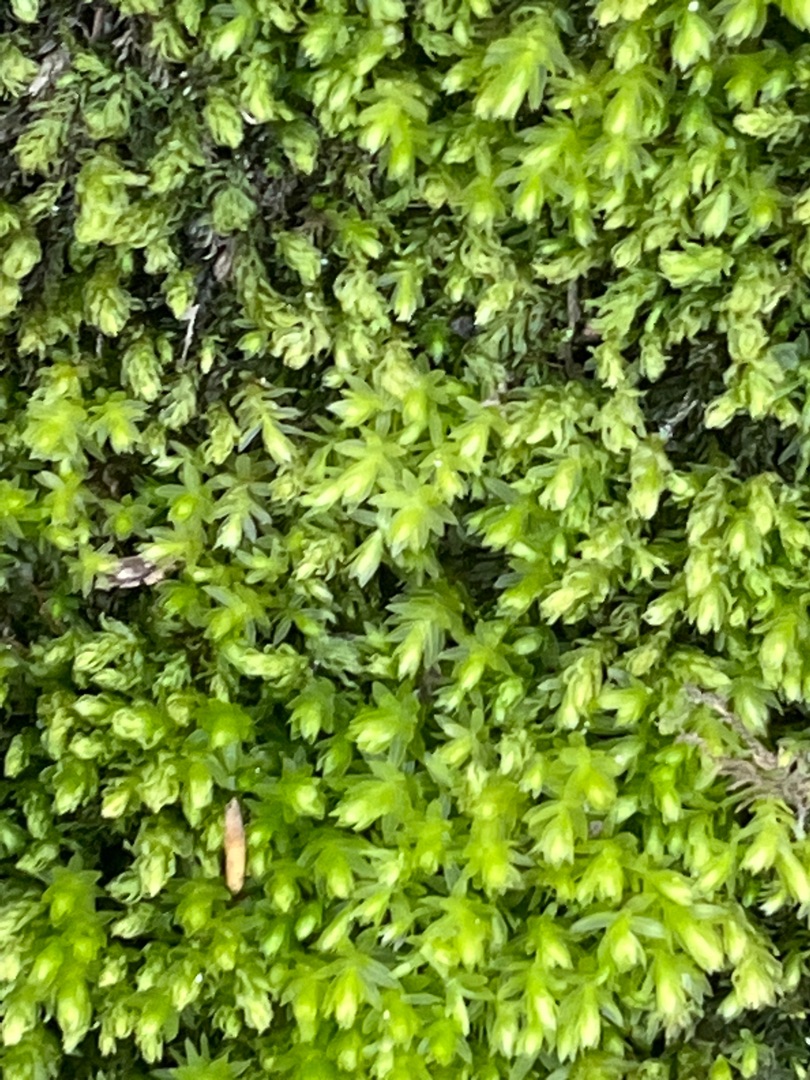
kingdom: Plantae
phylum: Bryophyta
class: Bryopsida
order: Bryales
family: Mniaceae
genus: Mnium
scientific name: Mnium hornum
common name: Brunfiltet stjernemos
